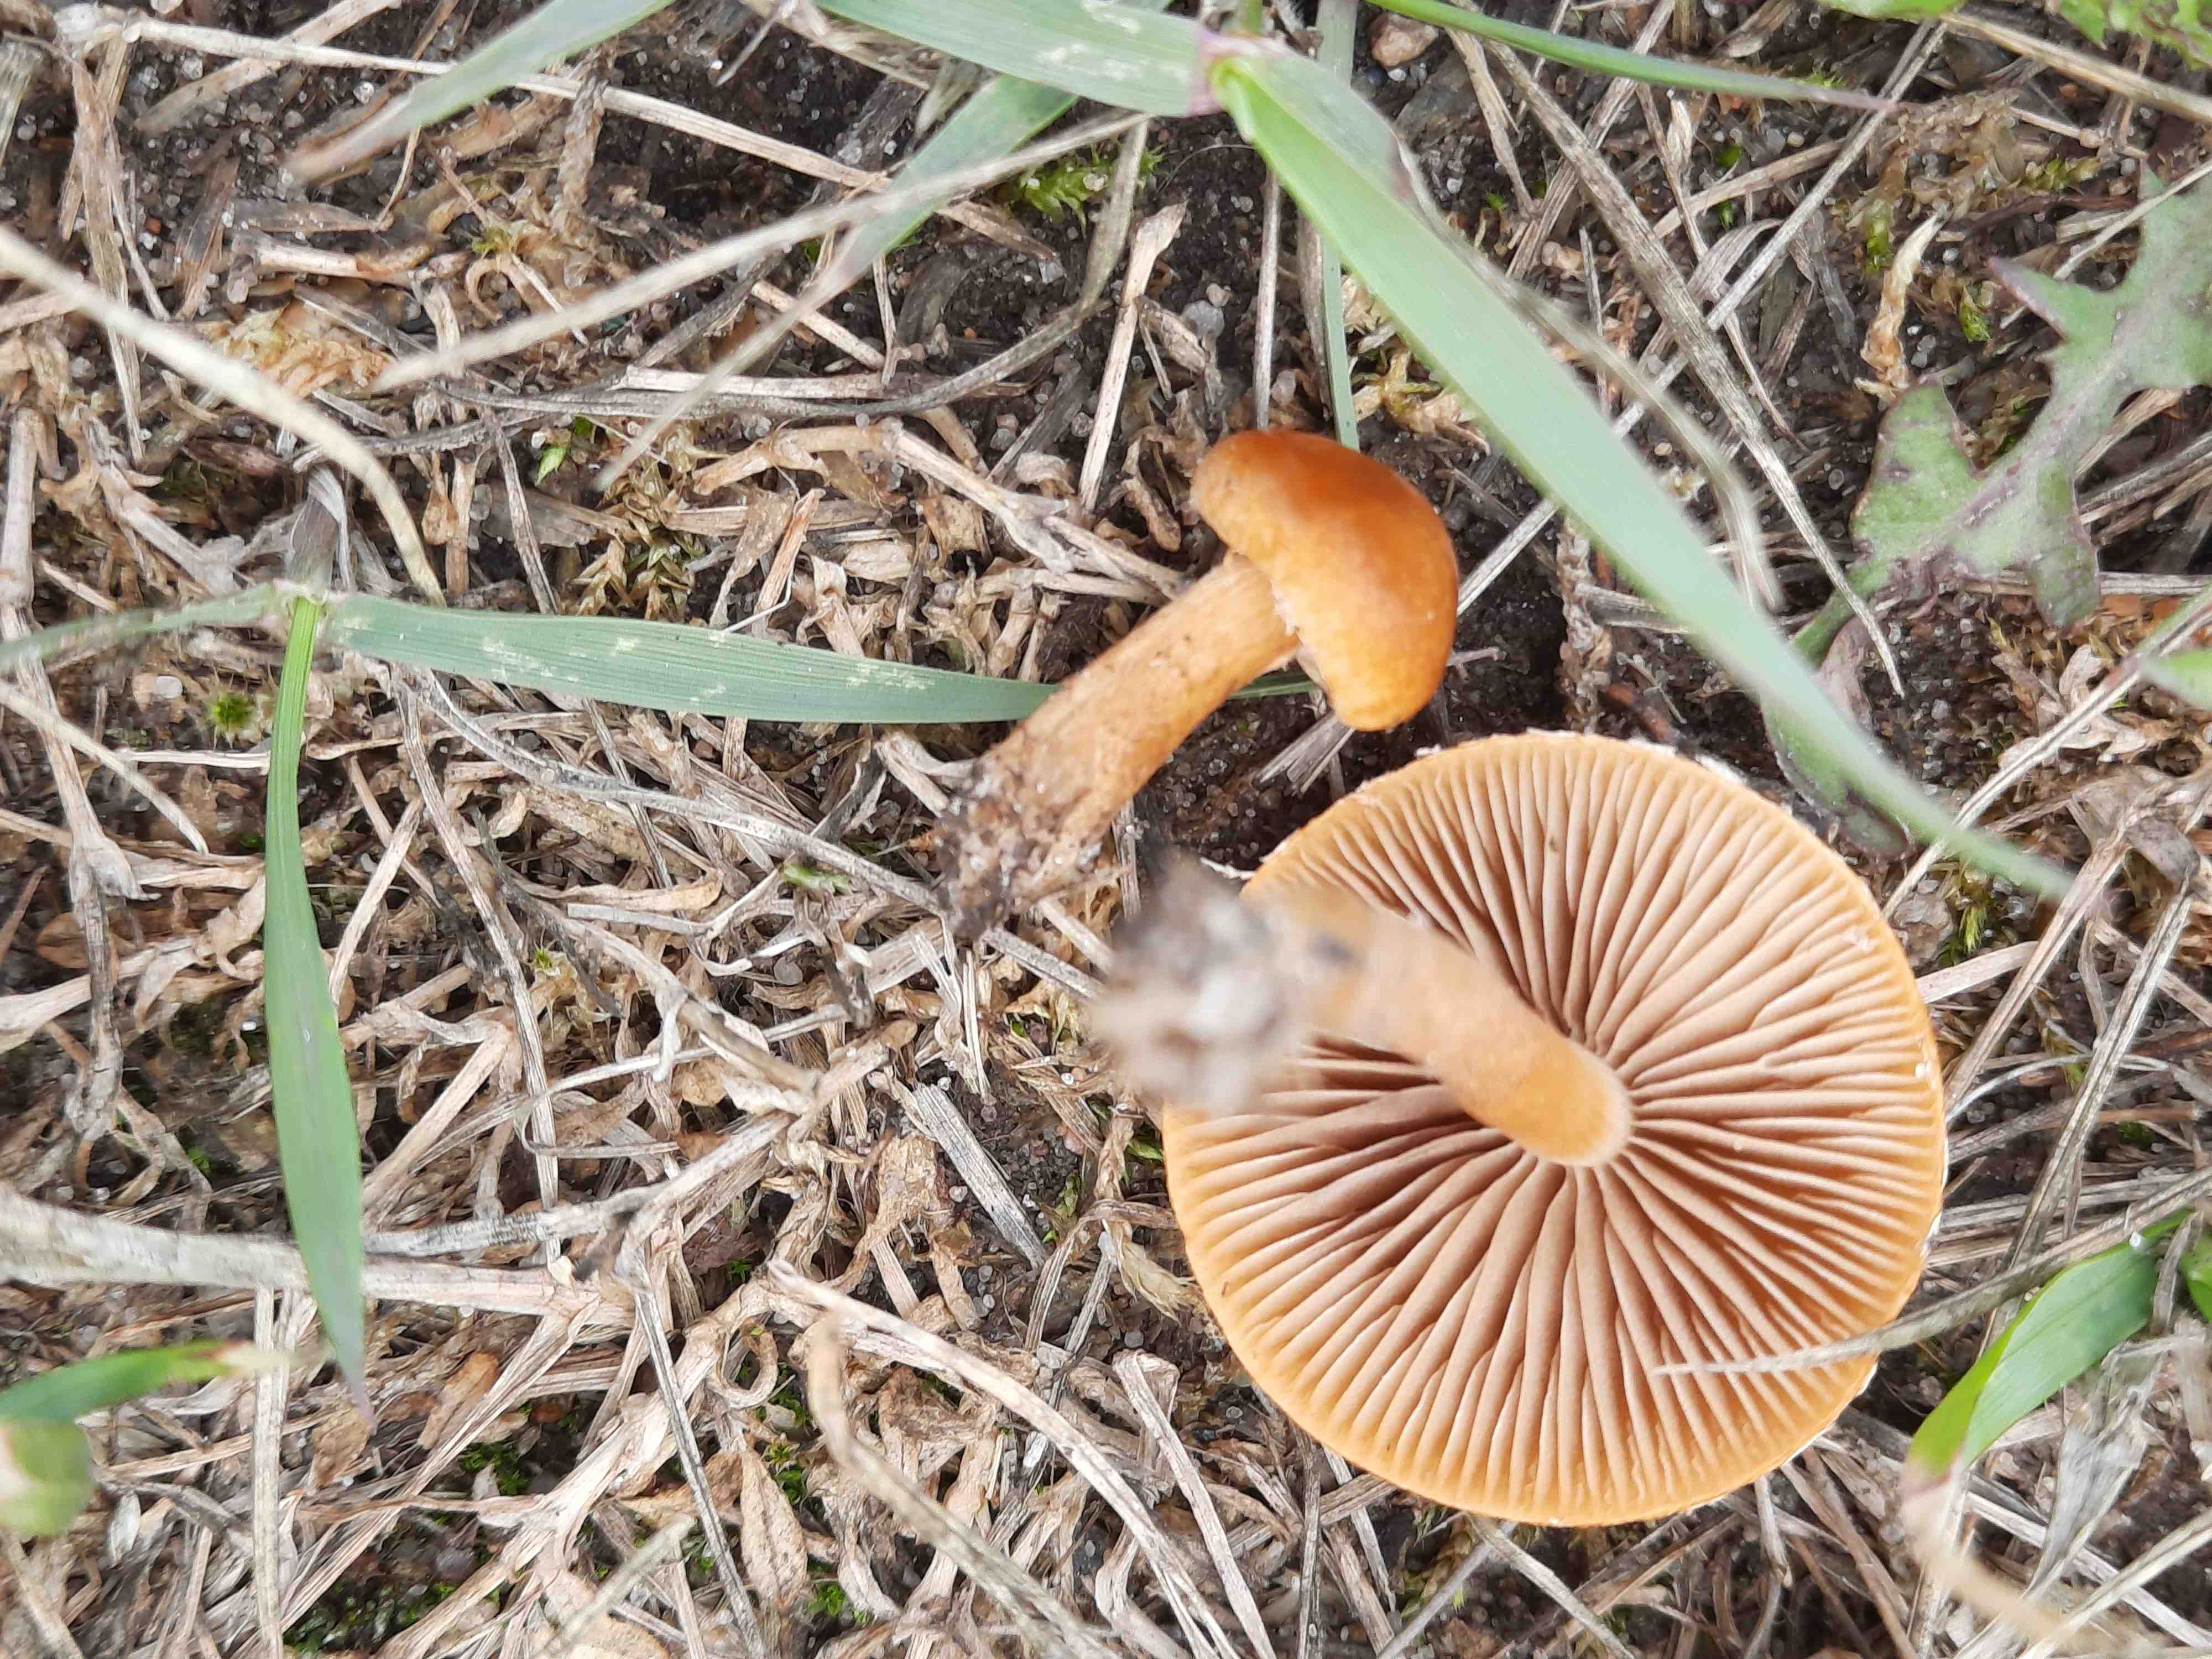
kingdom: Fungi
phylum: Basidiomycota
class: Agaricomycetes
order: Agaricales
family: Strophariaceae
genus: Agrocybe
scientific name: Agrocybe pediades
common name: almindelig agerhat
